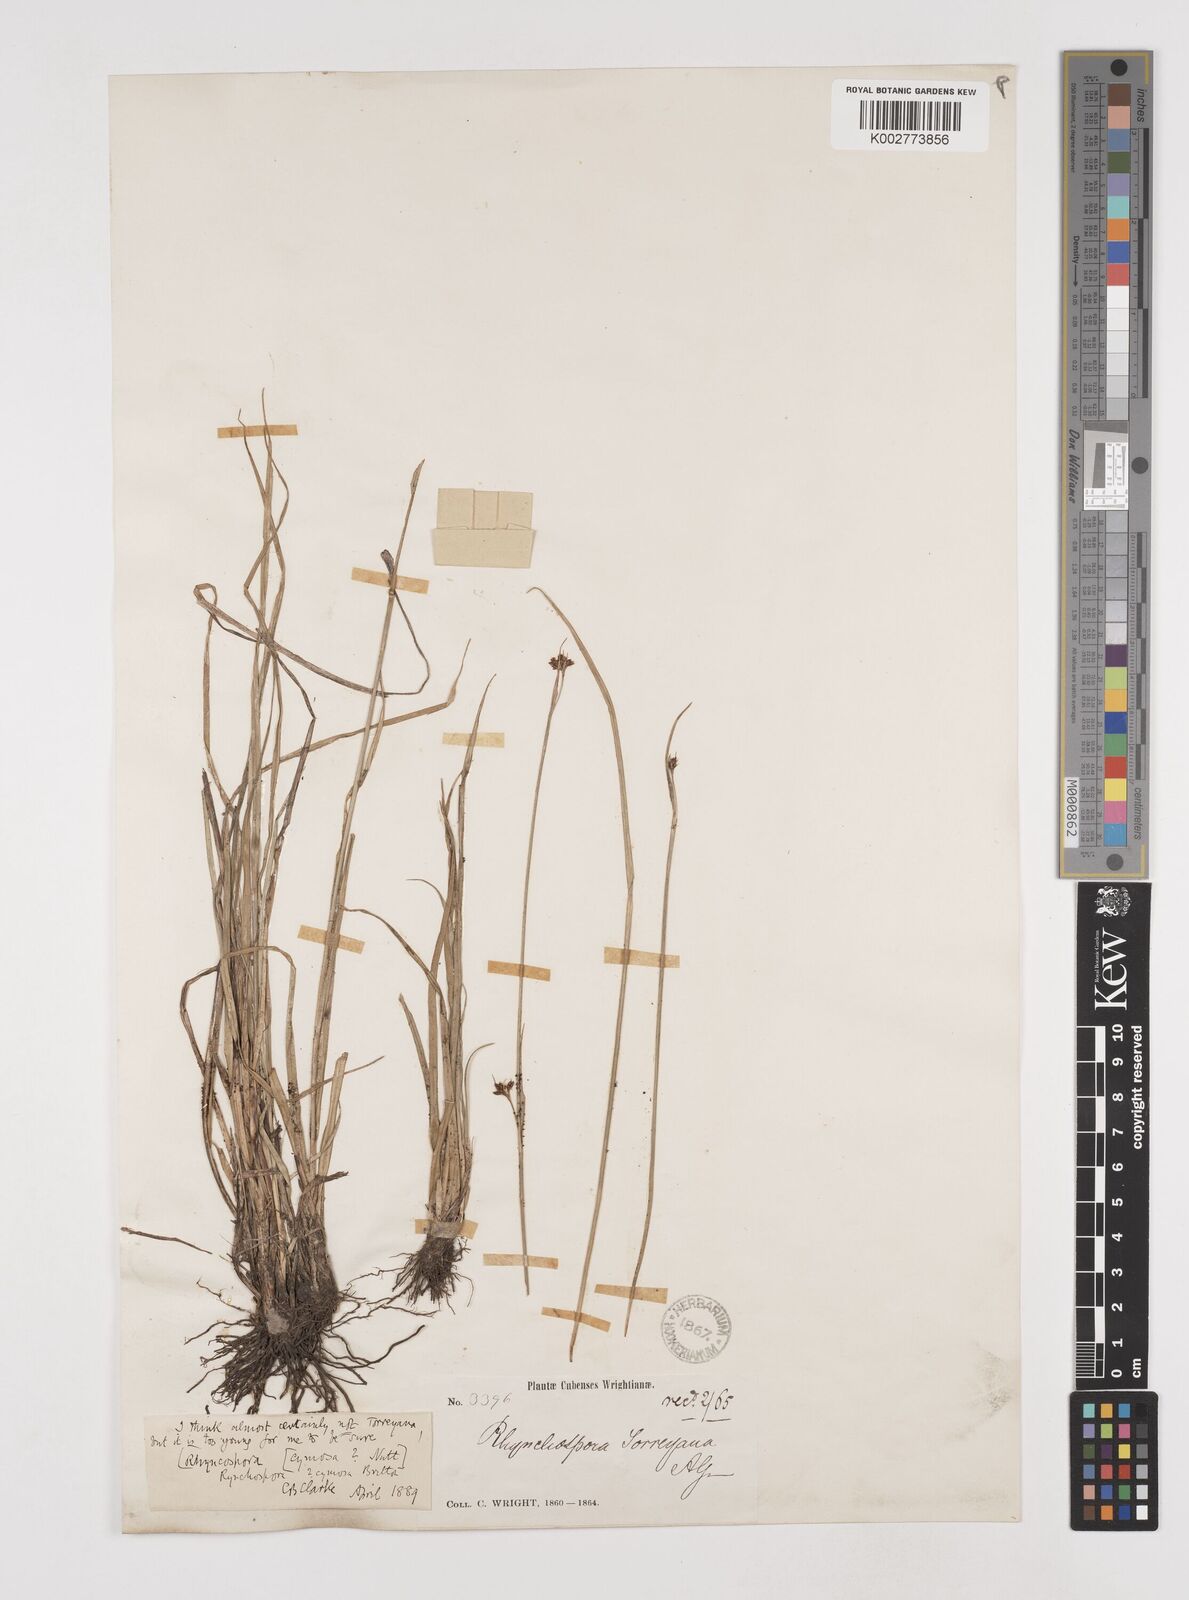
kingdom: Plantae
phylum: Tracheophyta
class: Liliopsida
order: Poales
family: Cyperaceae
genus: Rhynchospora
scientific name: Rhynchospora globularis
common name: Globe beaksedge
